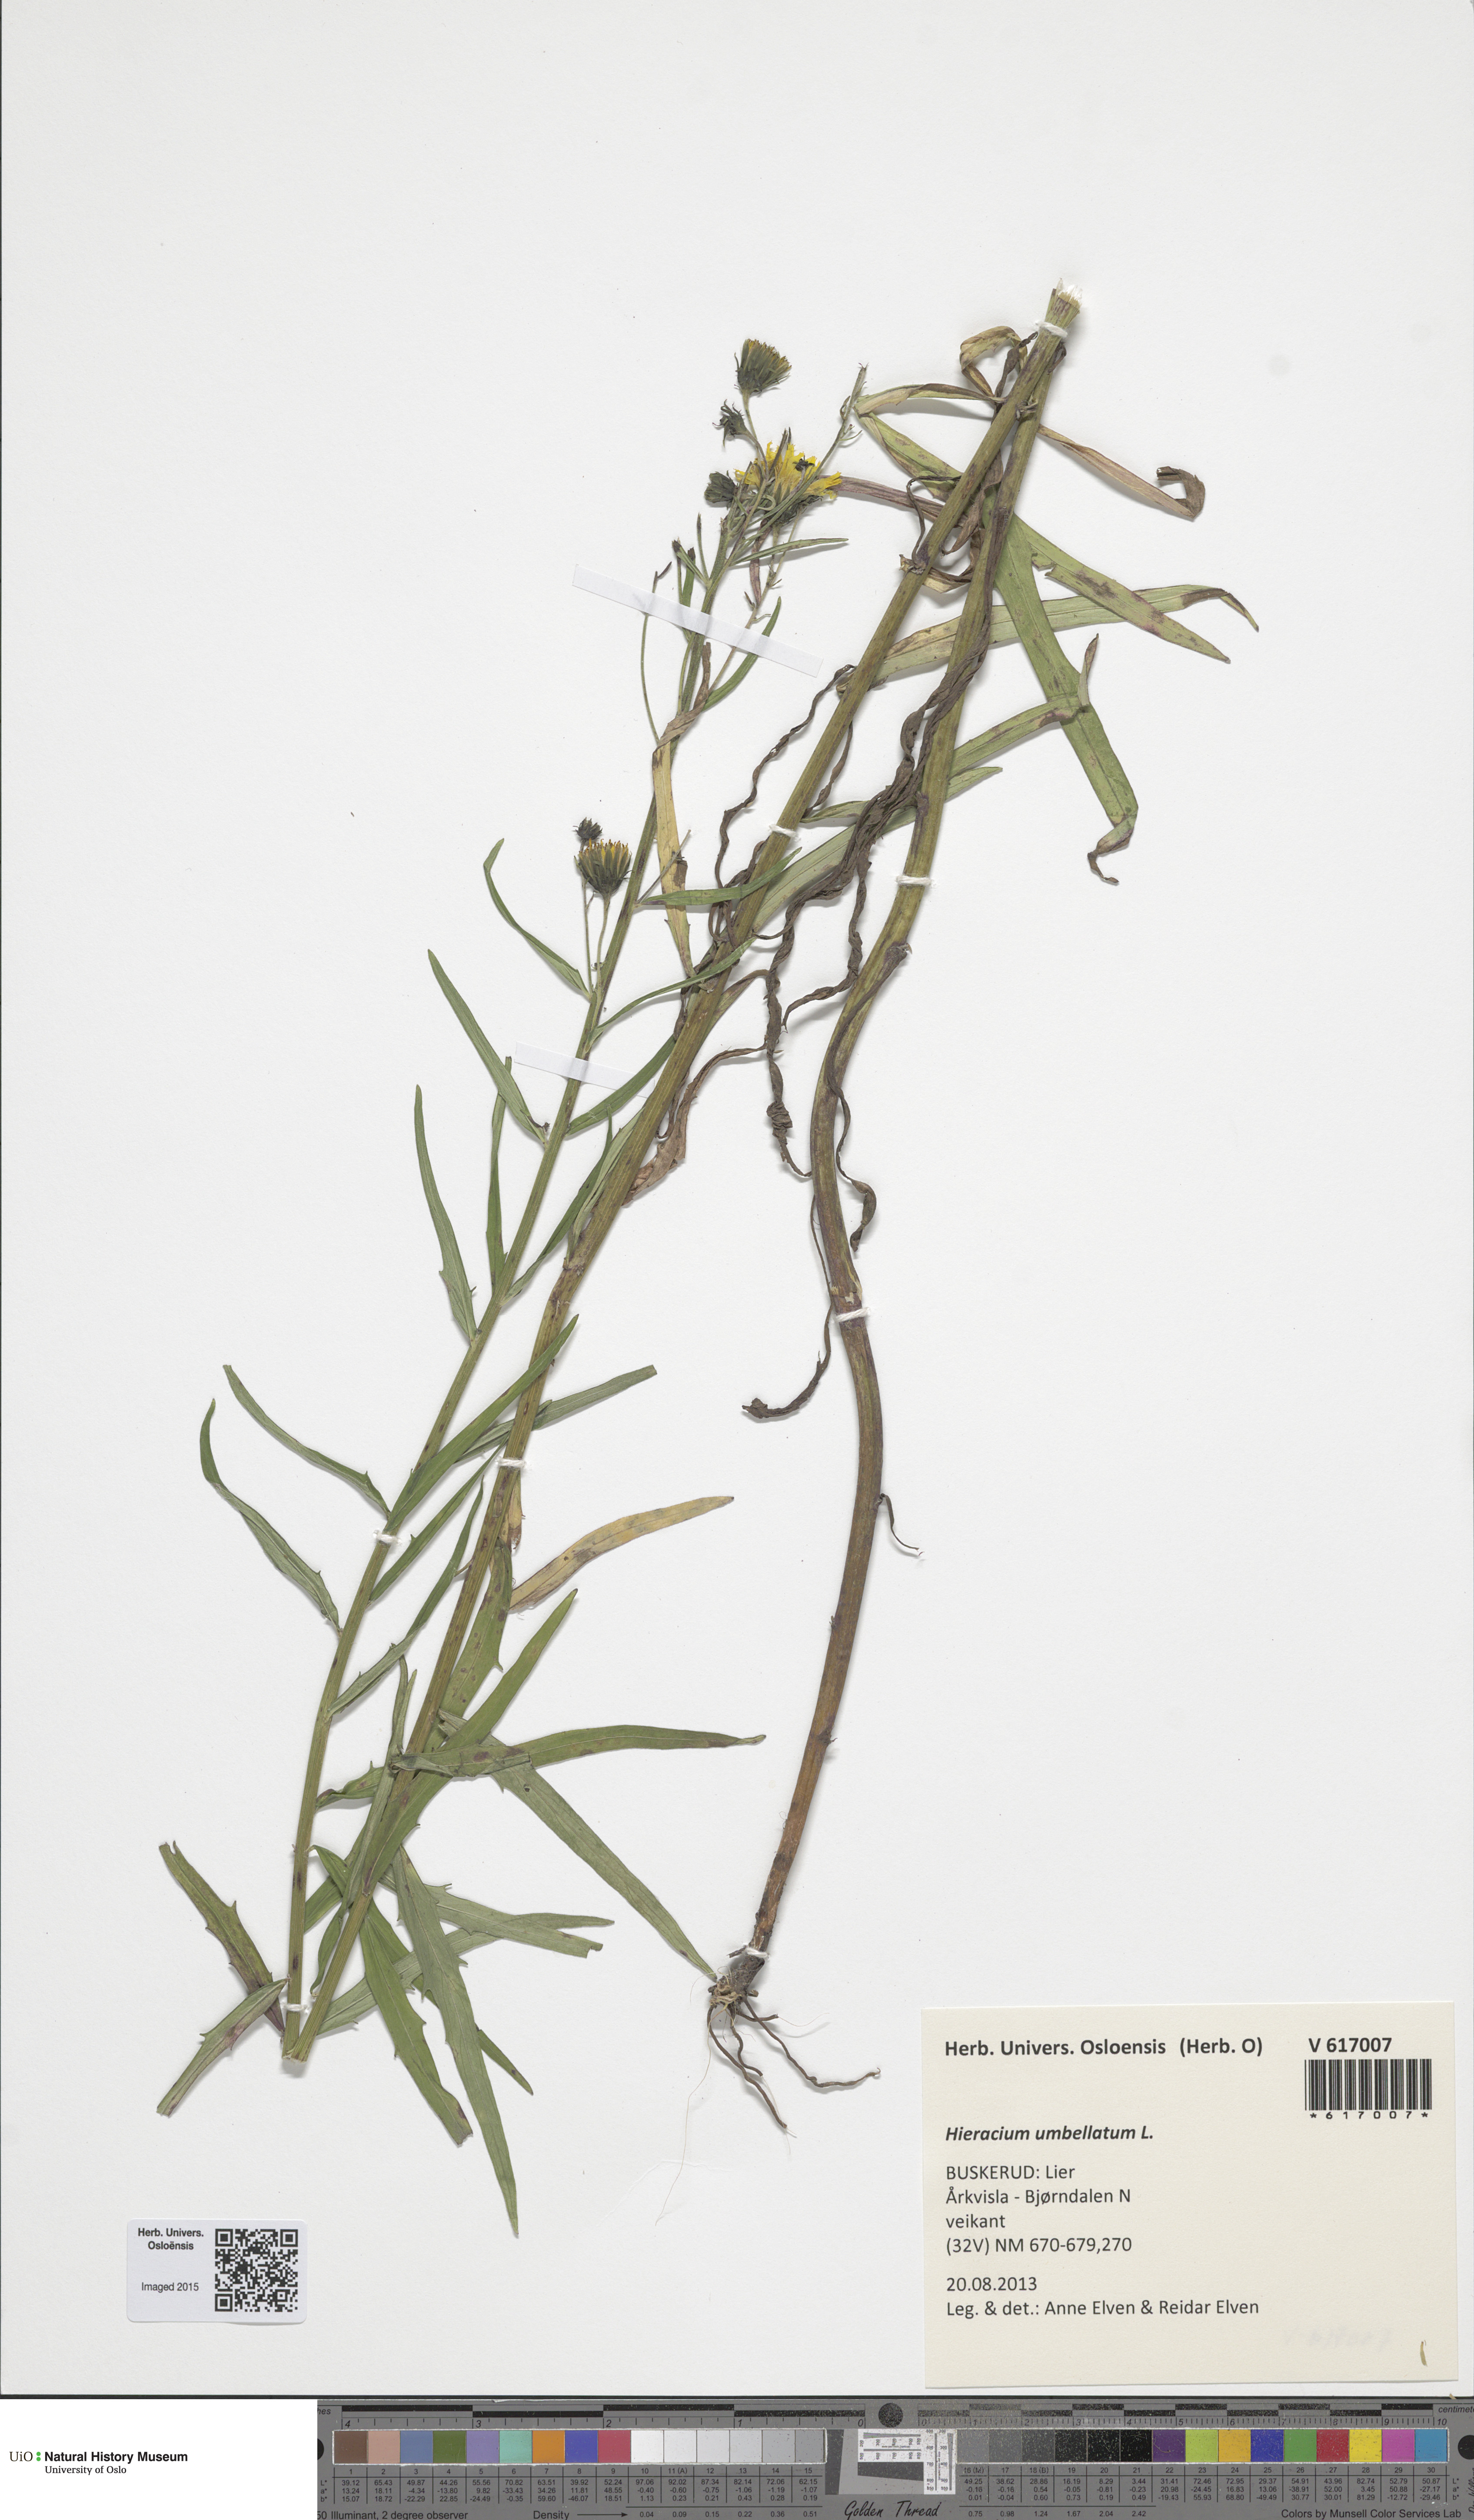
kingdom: Plantae
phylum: Tracheophyta
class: Magnoliopsida
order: Asterales
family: Asteraceae
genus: Hieracium
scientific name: Hieracium umbellatum
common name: Northern hawkweed
